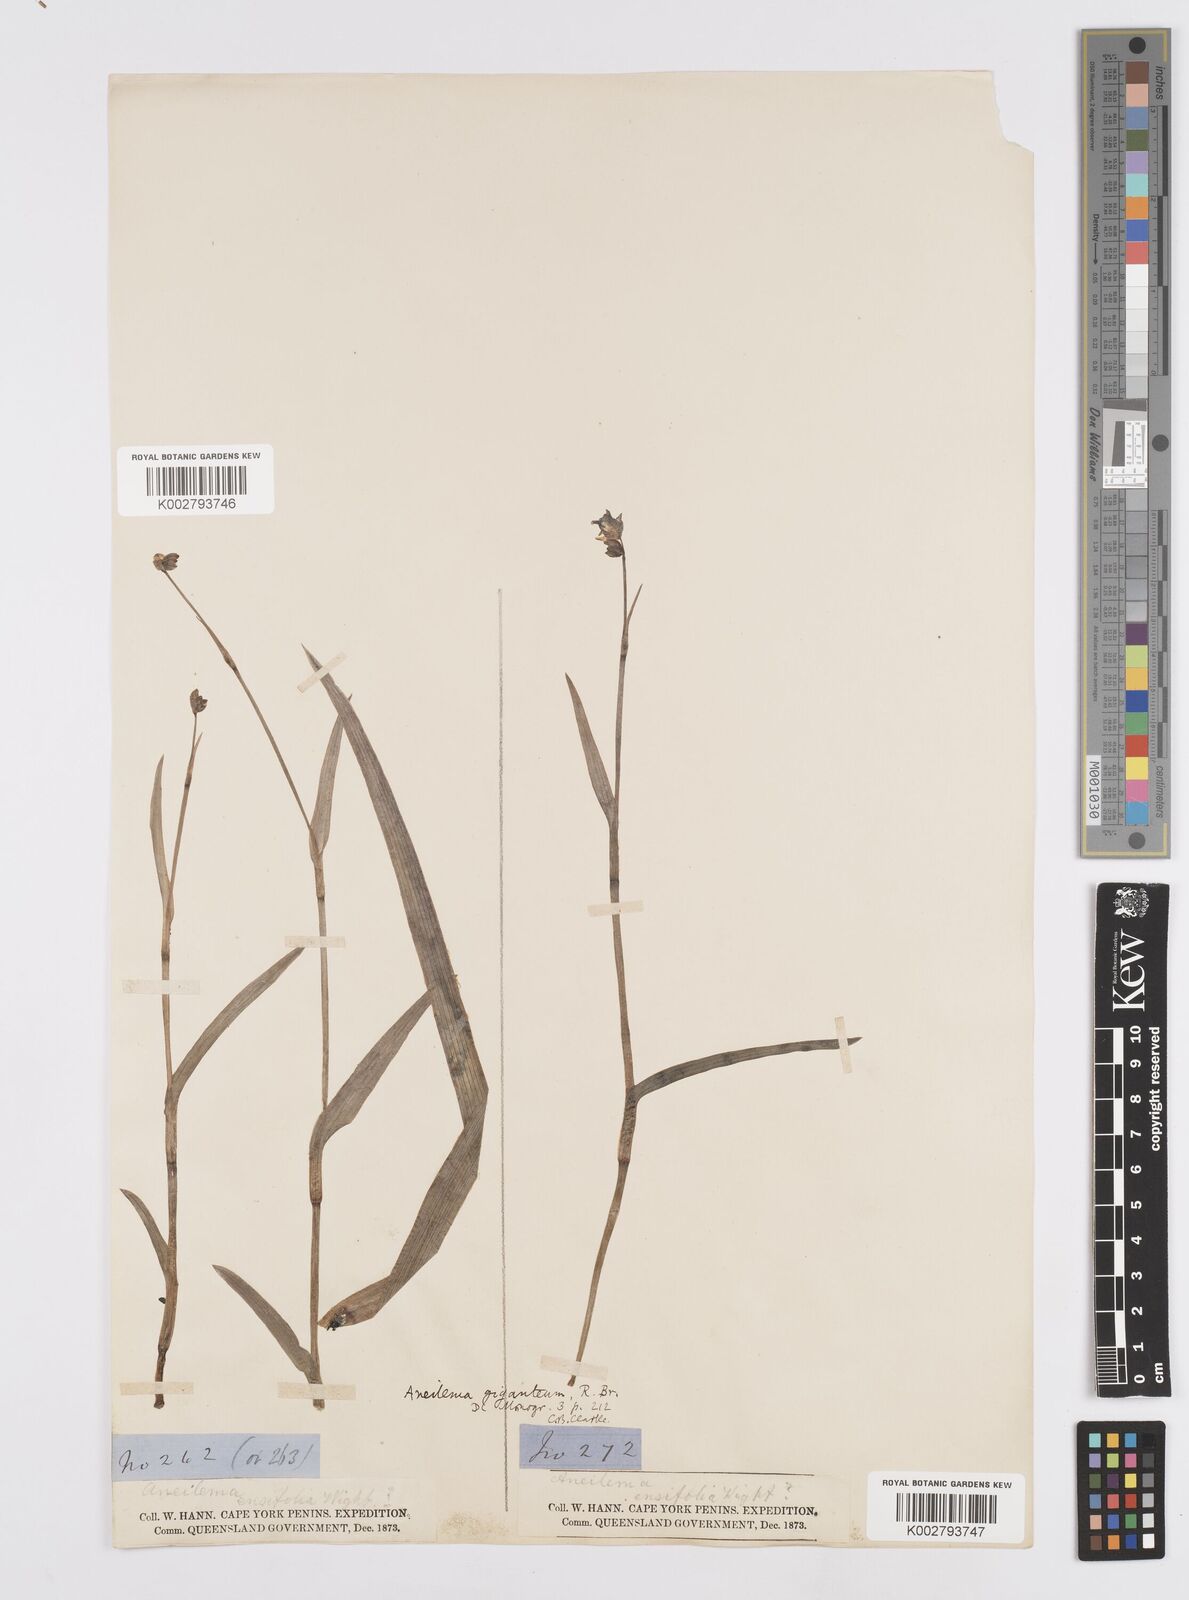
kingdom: Plantae
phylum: Tracheophyta
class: Liliopsida
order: Commelinales
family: Commelinaceae
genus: Murdannia
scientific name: Murdannia gigantea
